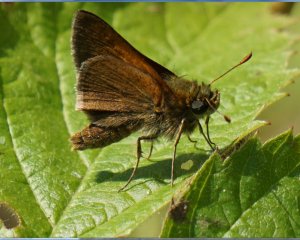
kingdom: Animalia
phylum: Arthropoda
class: Insecta
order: Lepidoptera
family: Hesperiidae
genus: Polites
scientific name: Polites themistocles
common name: Tawny-edged Skipper
